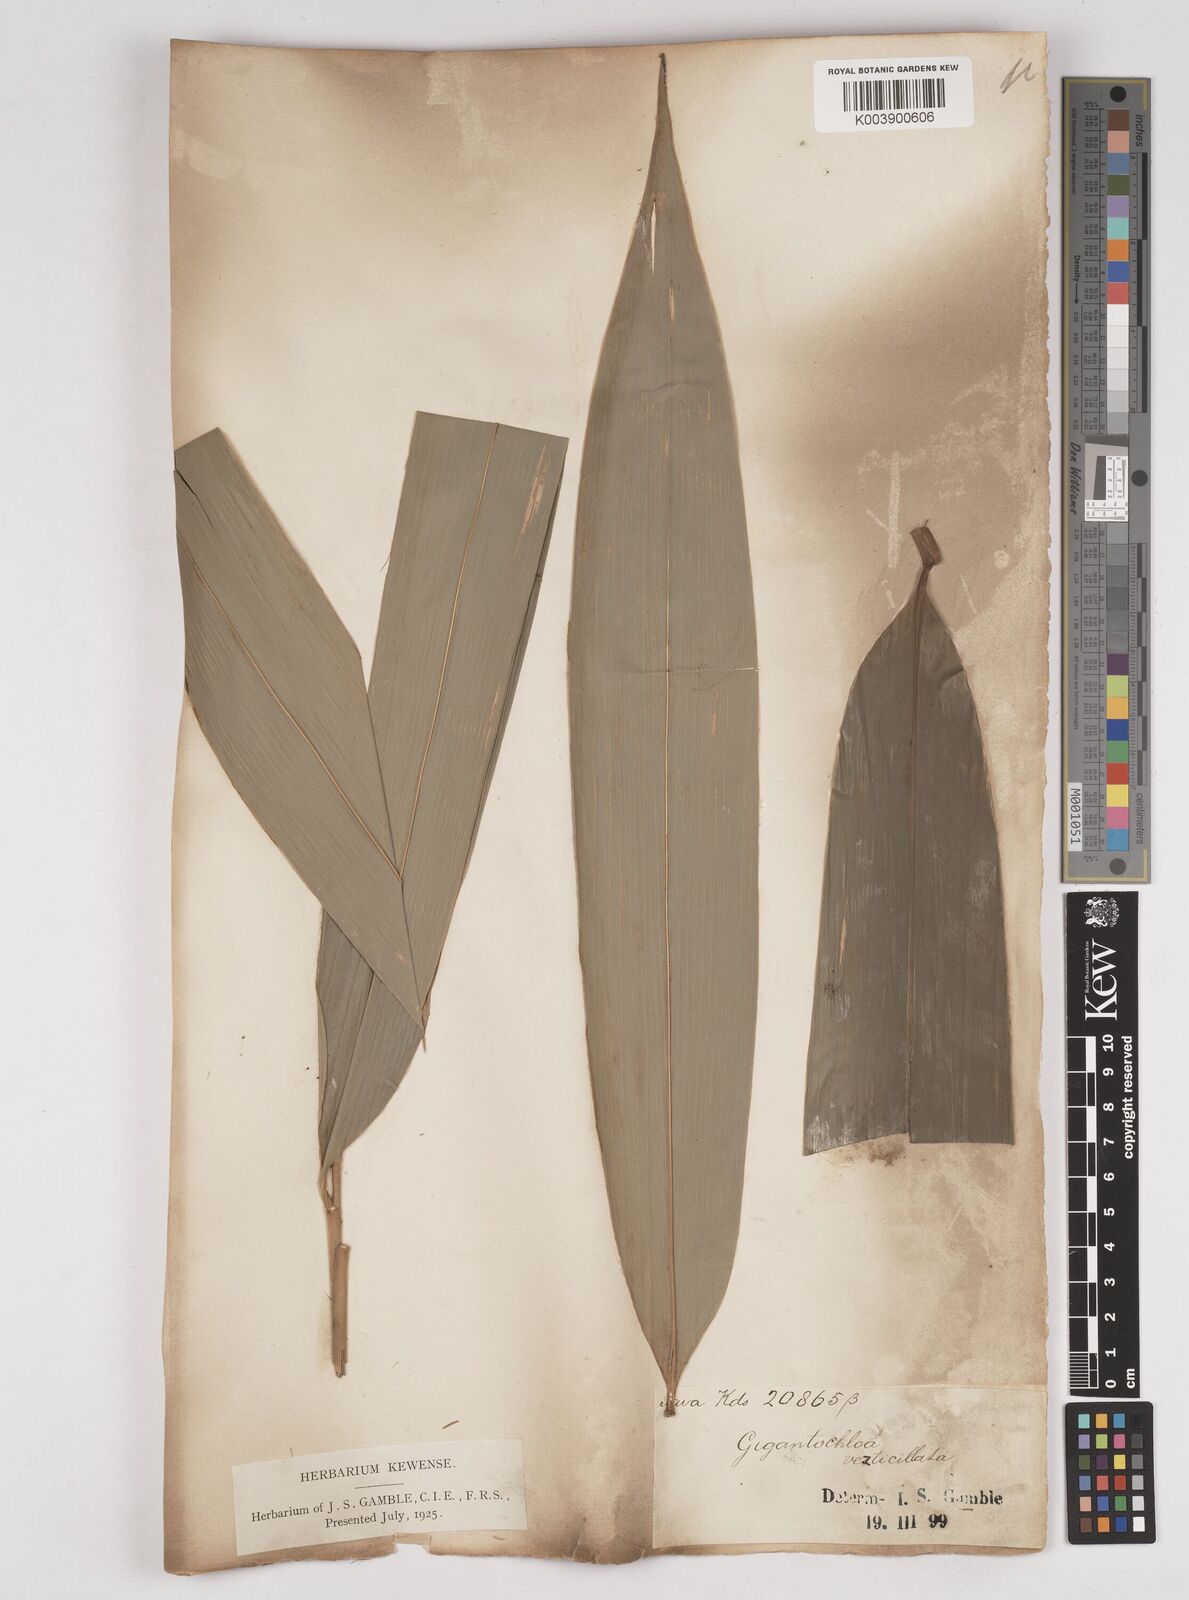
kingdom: Plantae
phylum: Tracheophyta
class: Liliopsida
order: Poales
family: Poaceae
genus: Gigantochloa
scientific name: Gigantochloa
